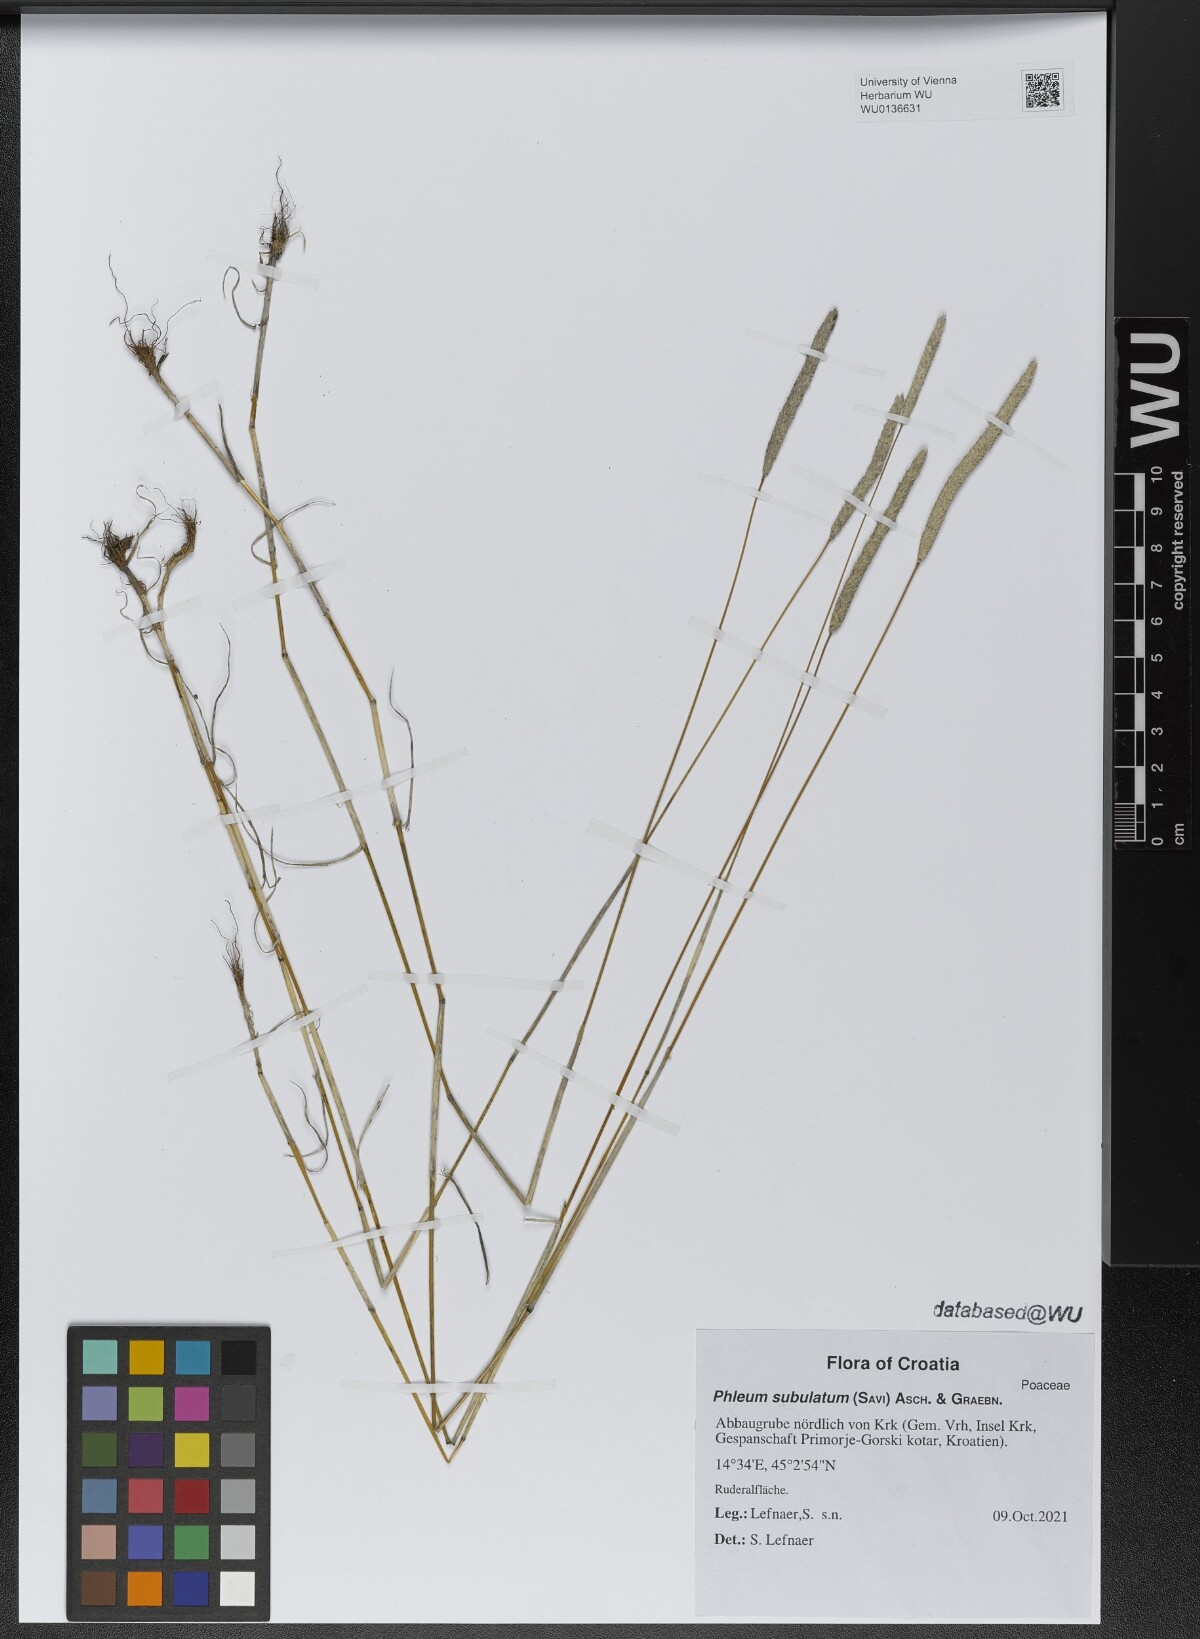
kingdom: Plantae
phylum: Tracheophyta
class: Liliopsida
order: Poales
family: Poaceae
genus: Phleum
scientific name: Phleum subulatum
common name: Italian timothy
